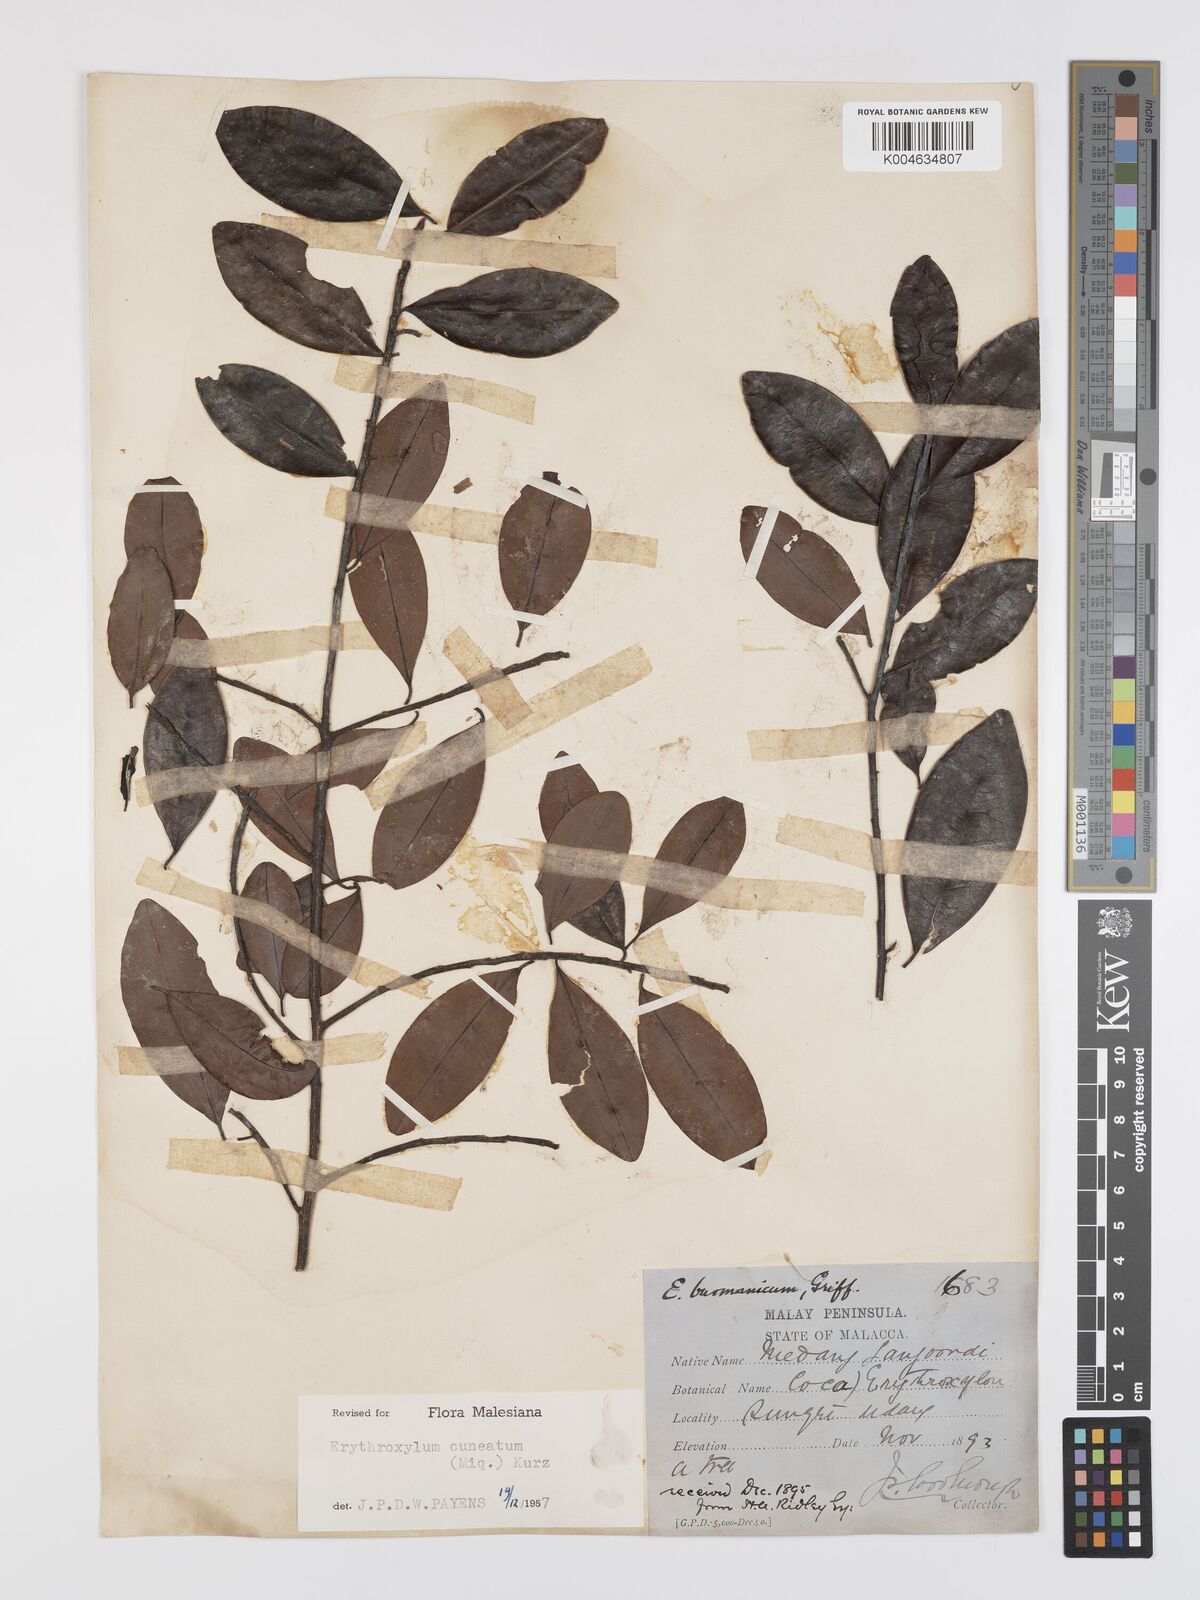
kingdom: Plantae
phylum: Tracheophyta
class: Magnoliopsida
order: Malpighiales
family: Erythroxylaceae
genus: Erythroxylum
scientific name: Erythroxylum cuneatum
